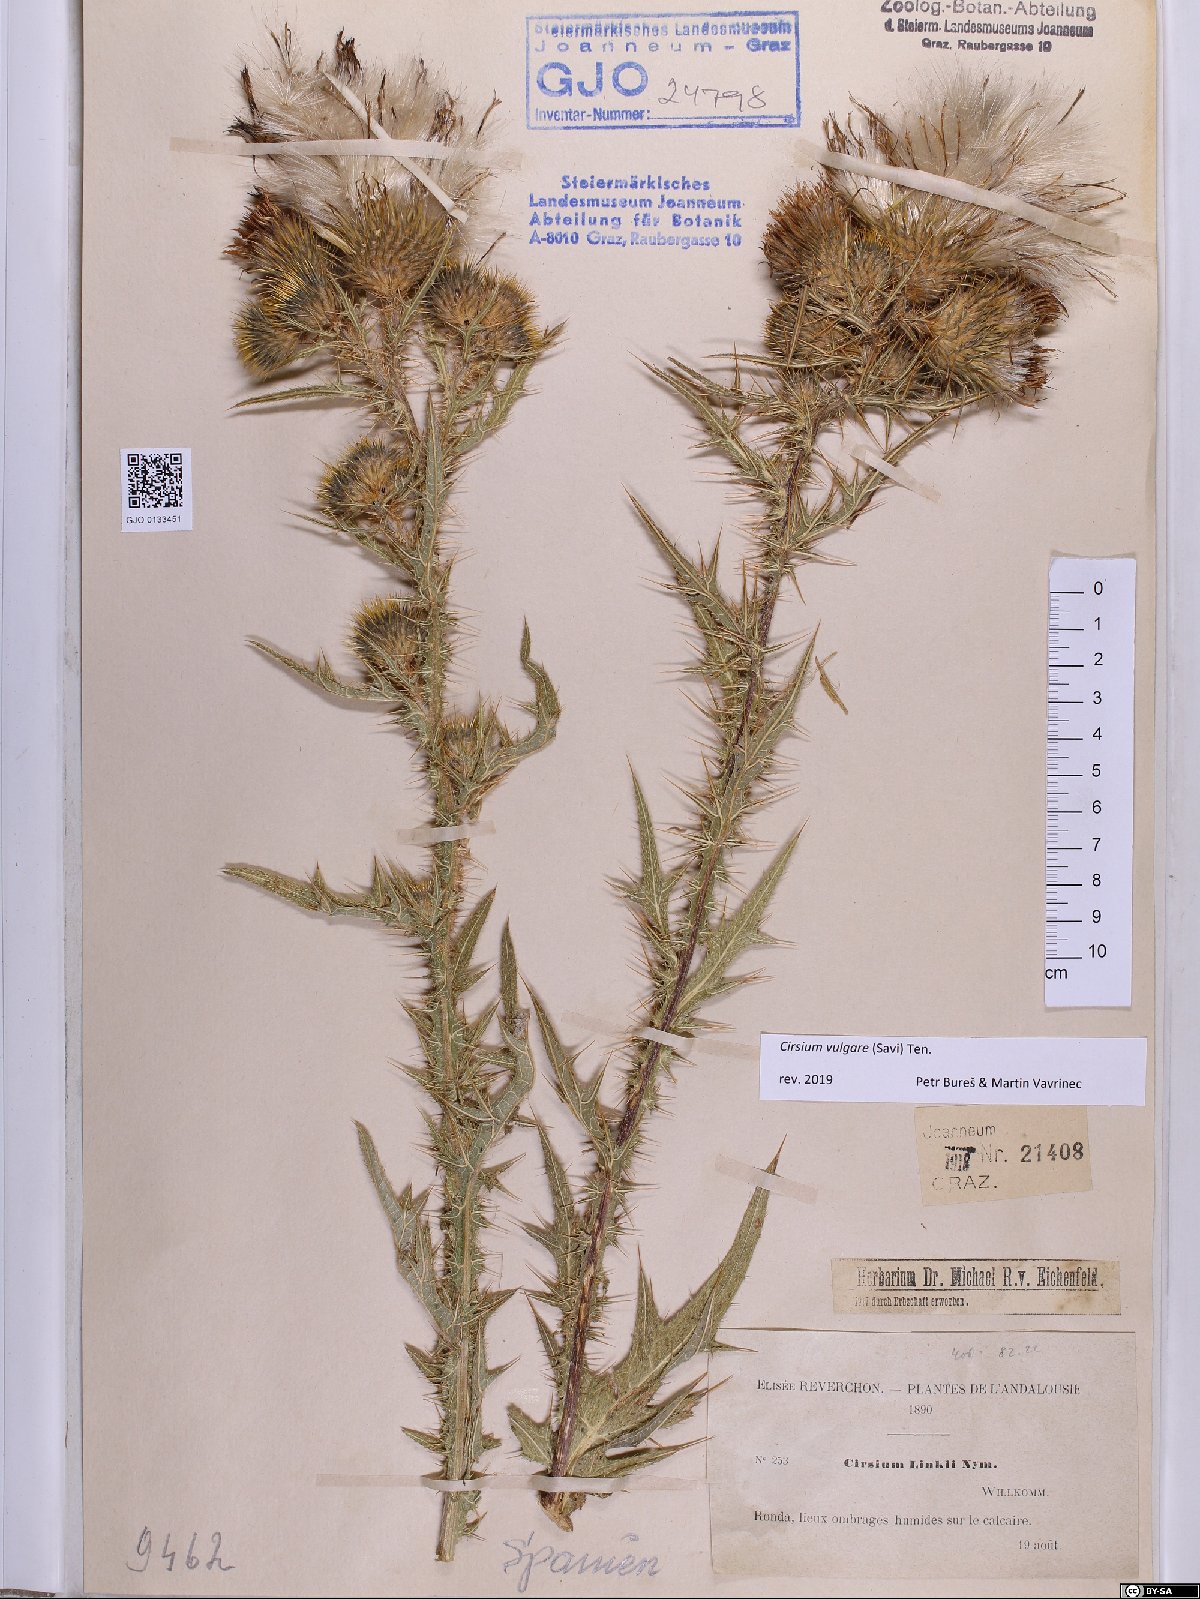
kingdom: Plantae
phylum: Tracheophyta
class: Magnoliopsida
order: Asterales
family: Asteraceae
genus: Cirsium
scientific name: Cirsium vulgare
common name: Bull thistle
